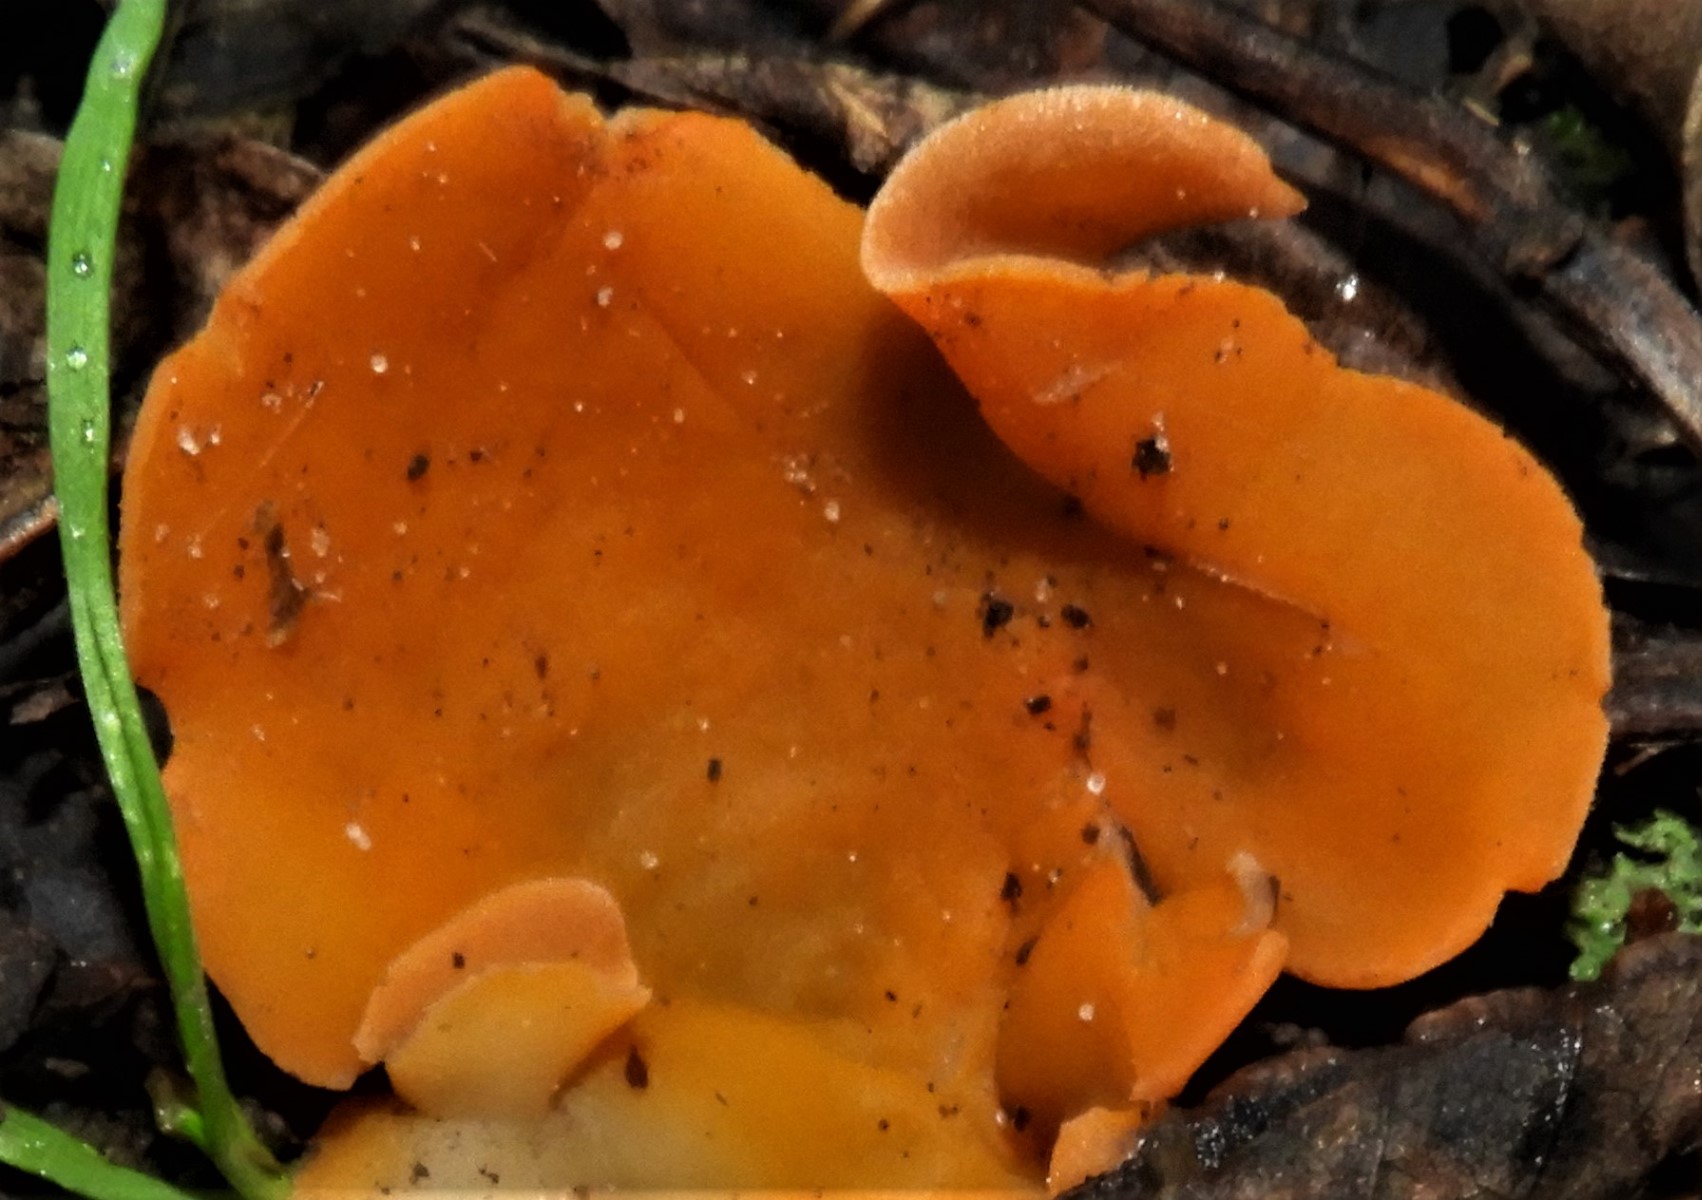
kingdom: Fungi
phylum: Ascomycota
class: Pezizomycetes
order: Pezizales
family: Pyronemataceae
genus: Aleuria
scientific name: Aleuria aurantia
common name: almindelig orangebæger
